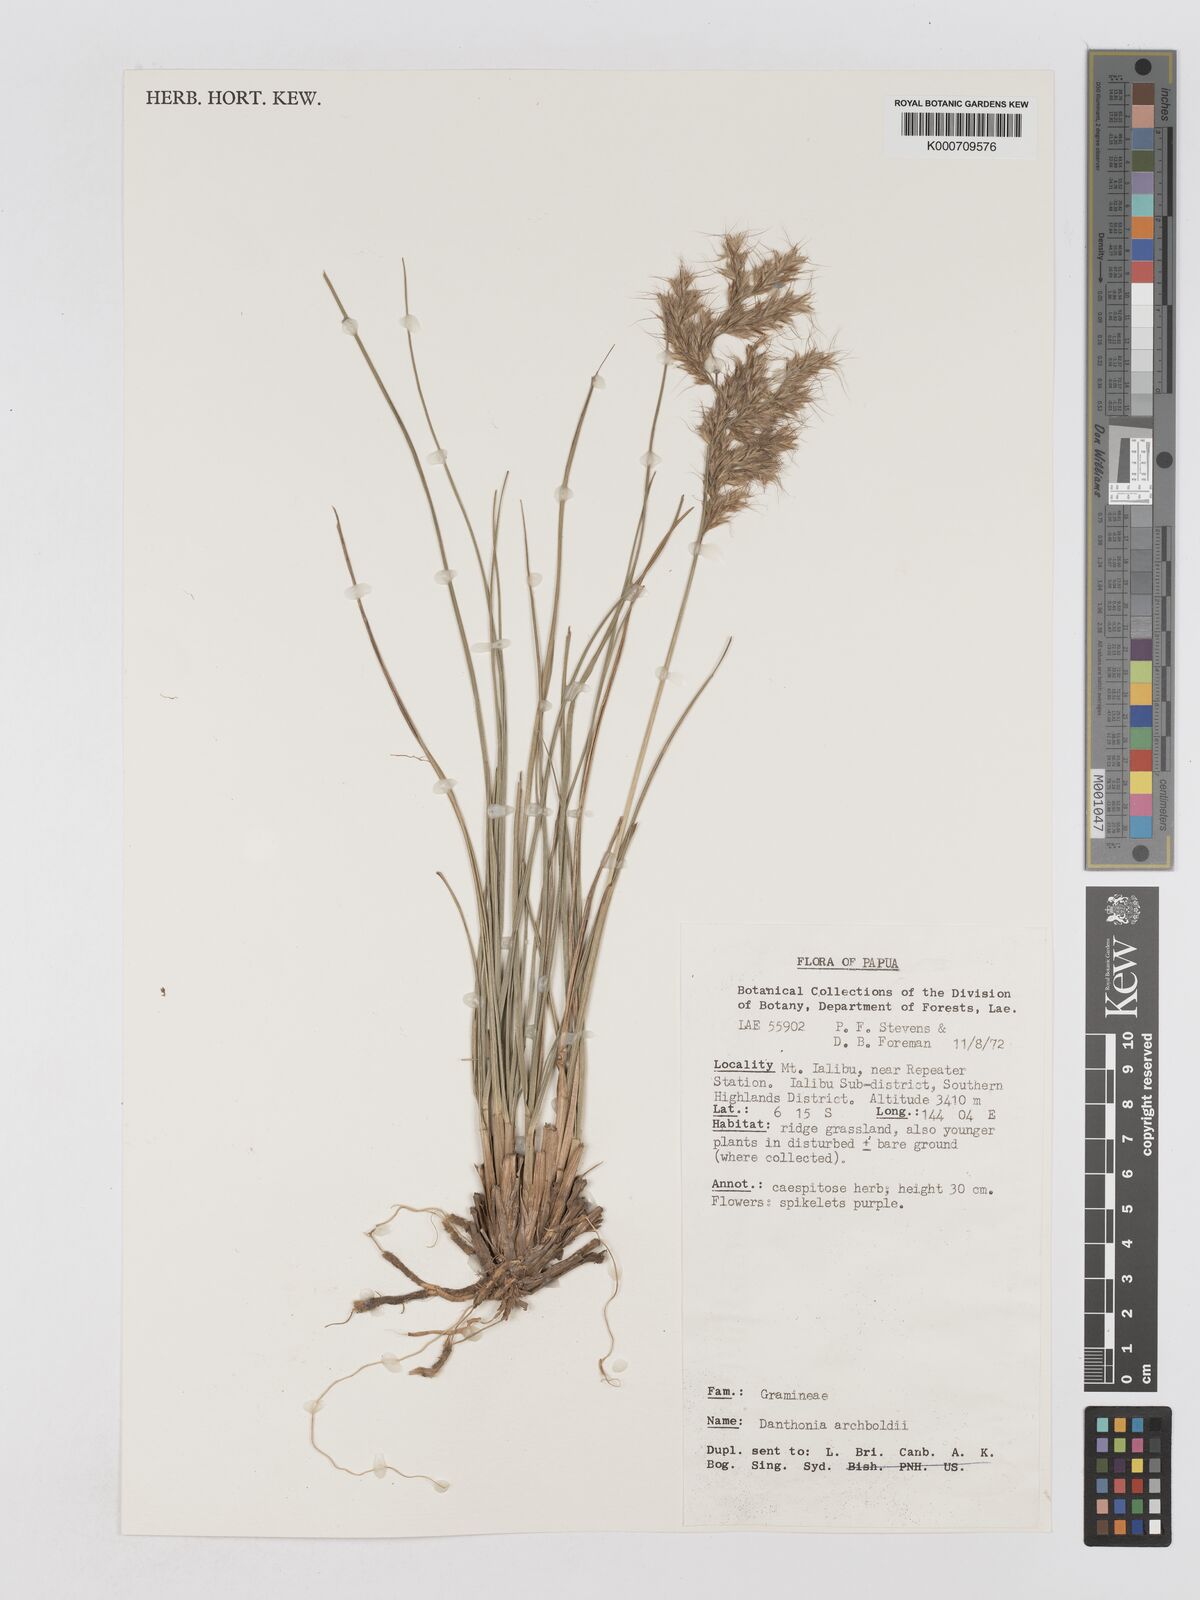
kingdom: Plantae
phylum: Tracheophyta
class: Liliopsida
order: Poales
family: Poaceae
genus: Chimaerochloa
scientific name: Chimaerochloa archboldii
